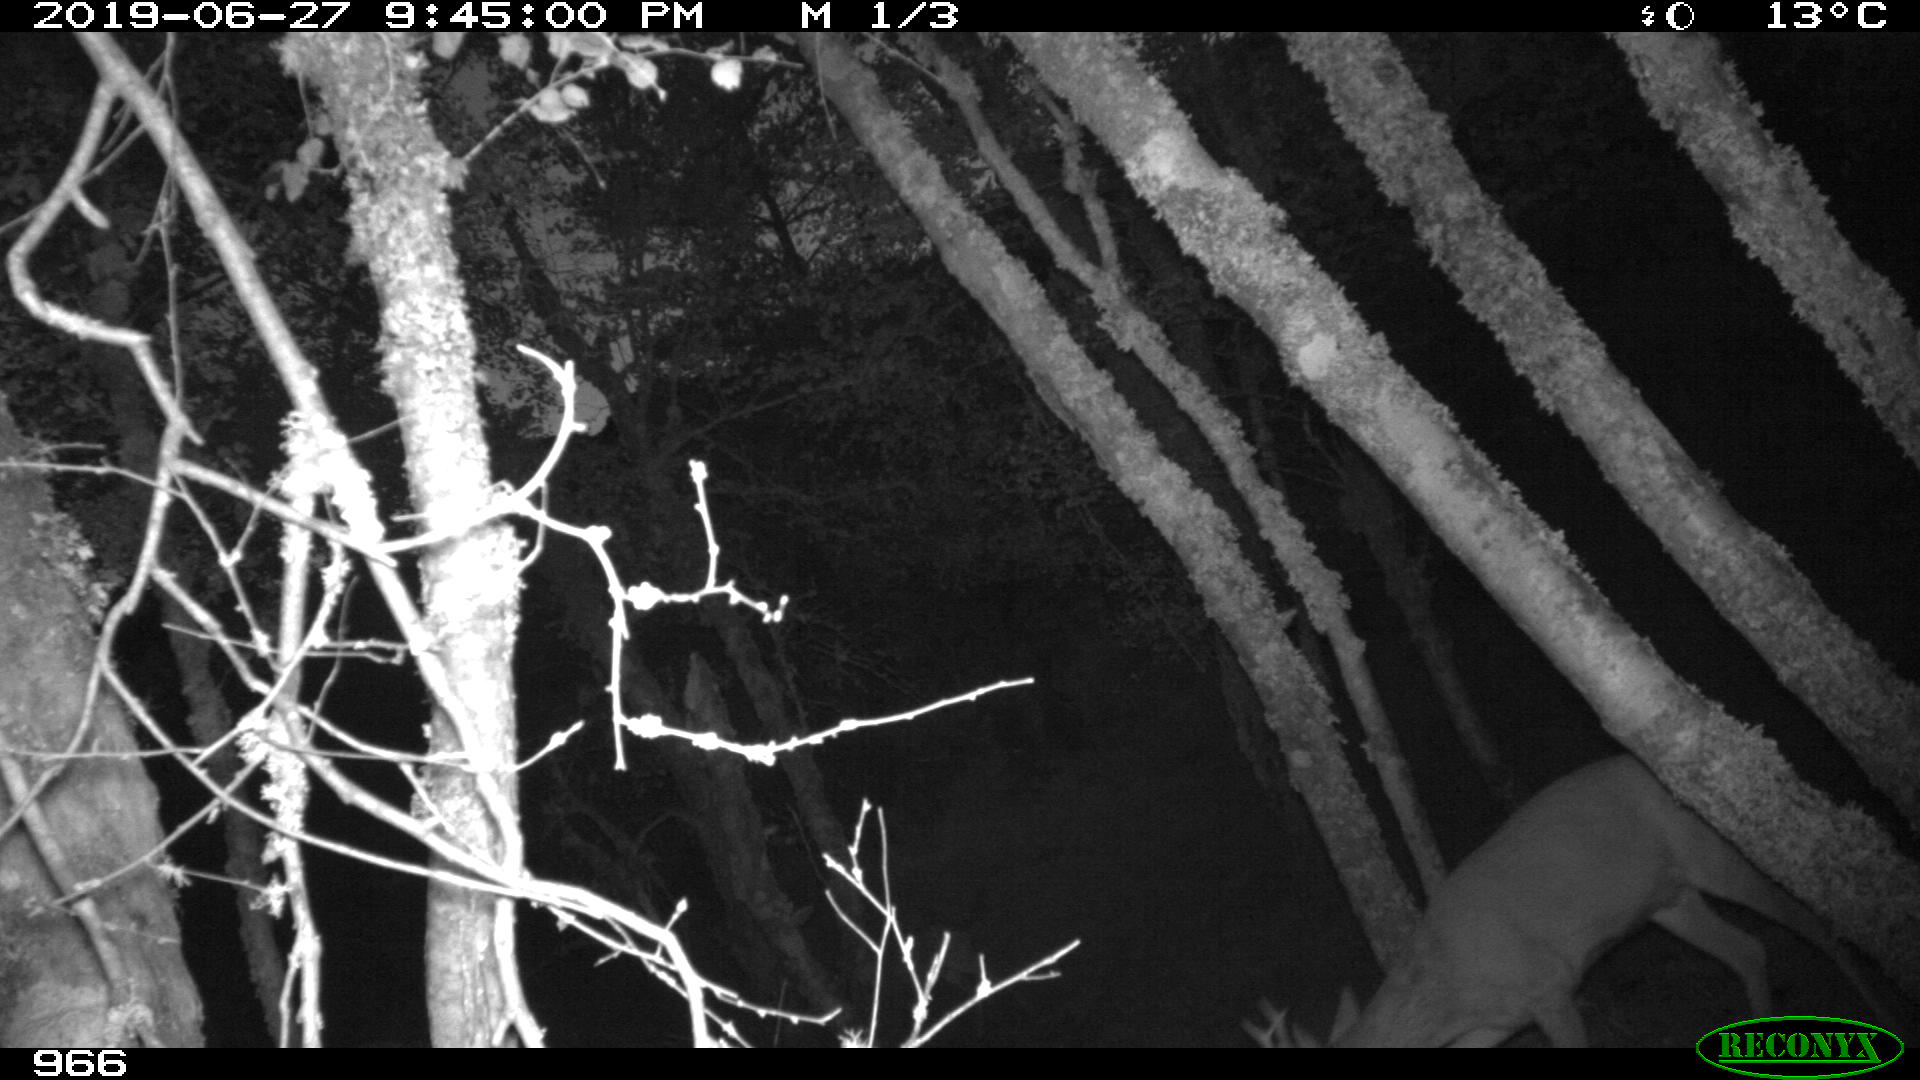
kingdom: Animalia
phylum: Chordata
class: Mammalia
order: Artiodactyla
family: Cervidae
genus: Capreolus
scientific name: Capreolus capreolus
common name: Western roe deer
